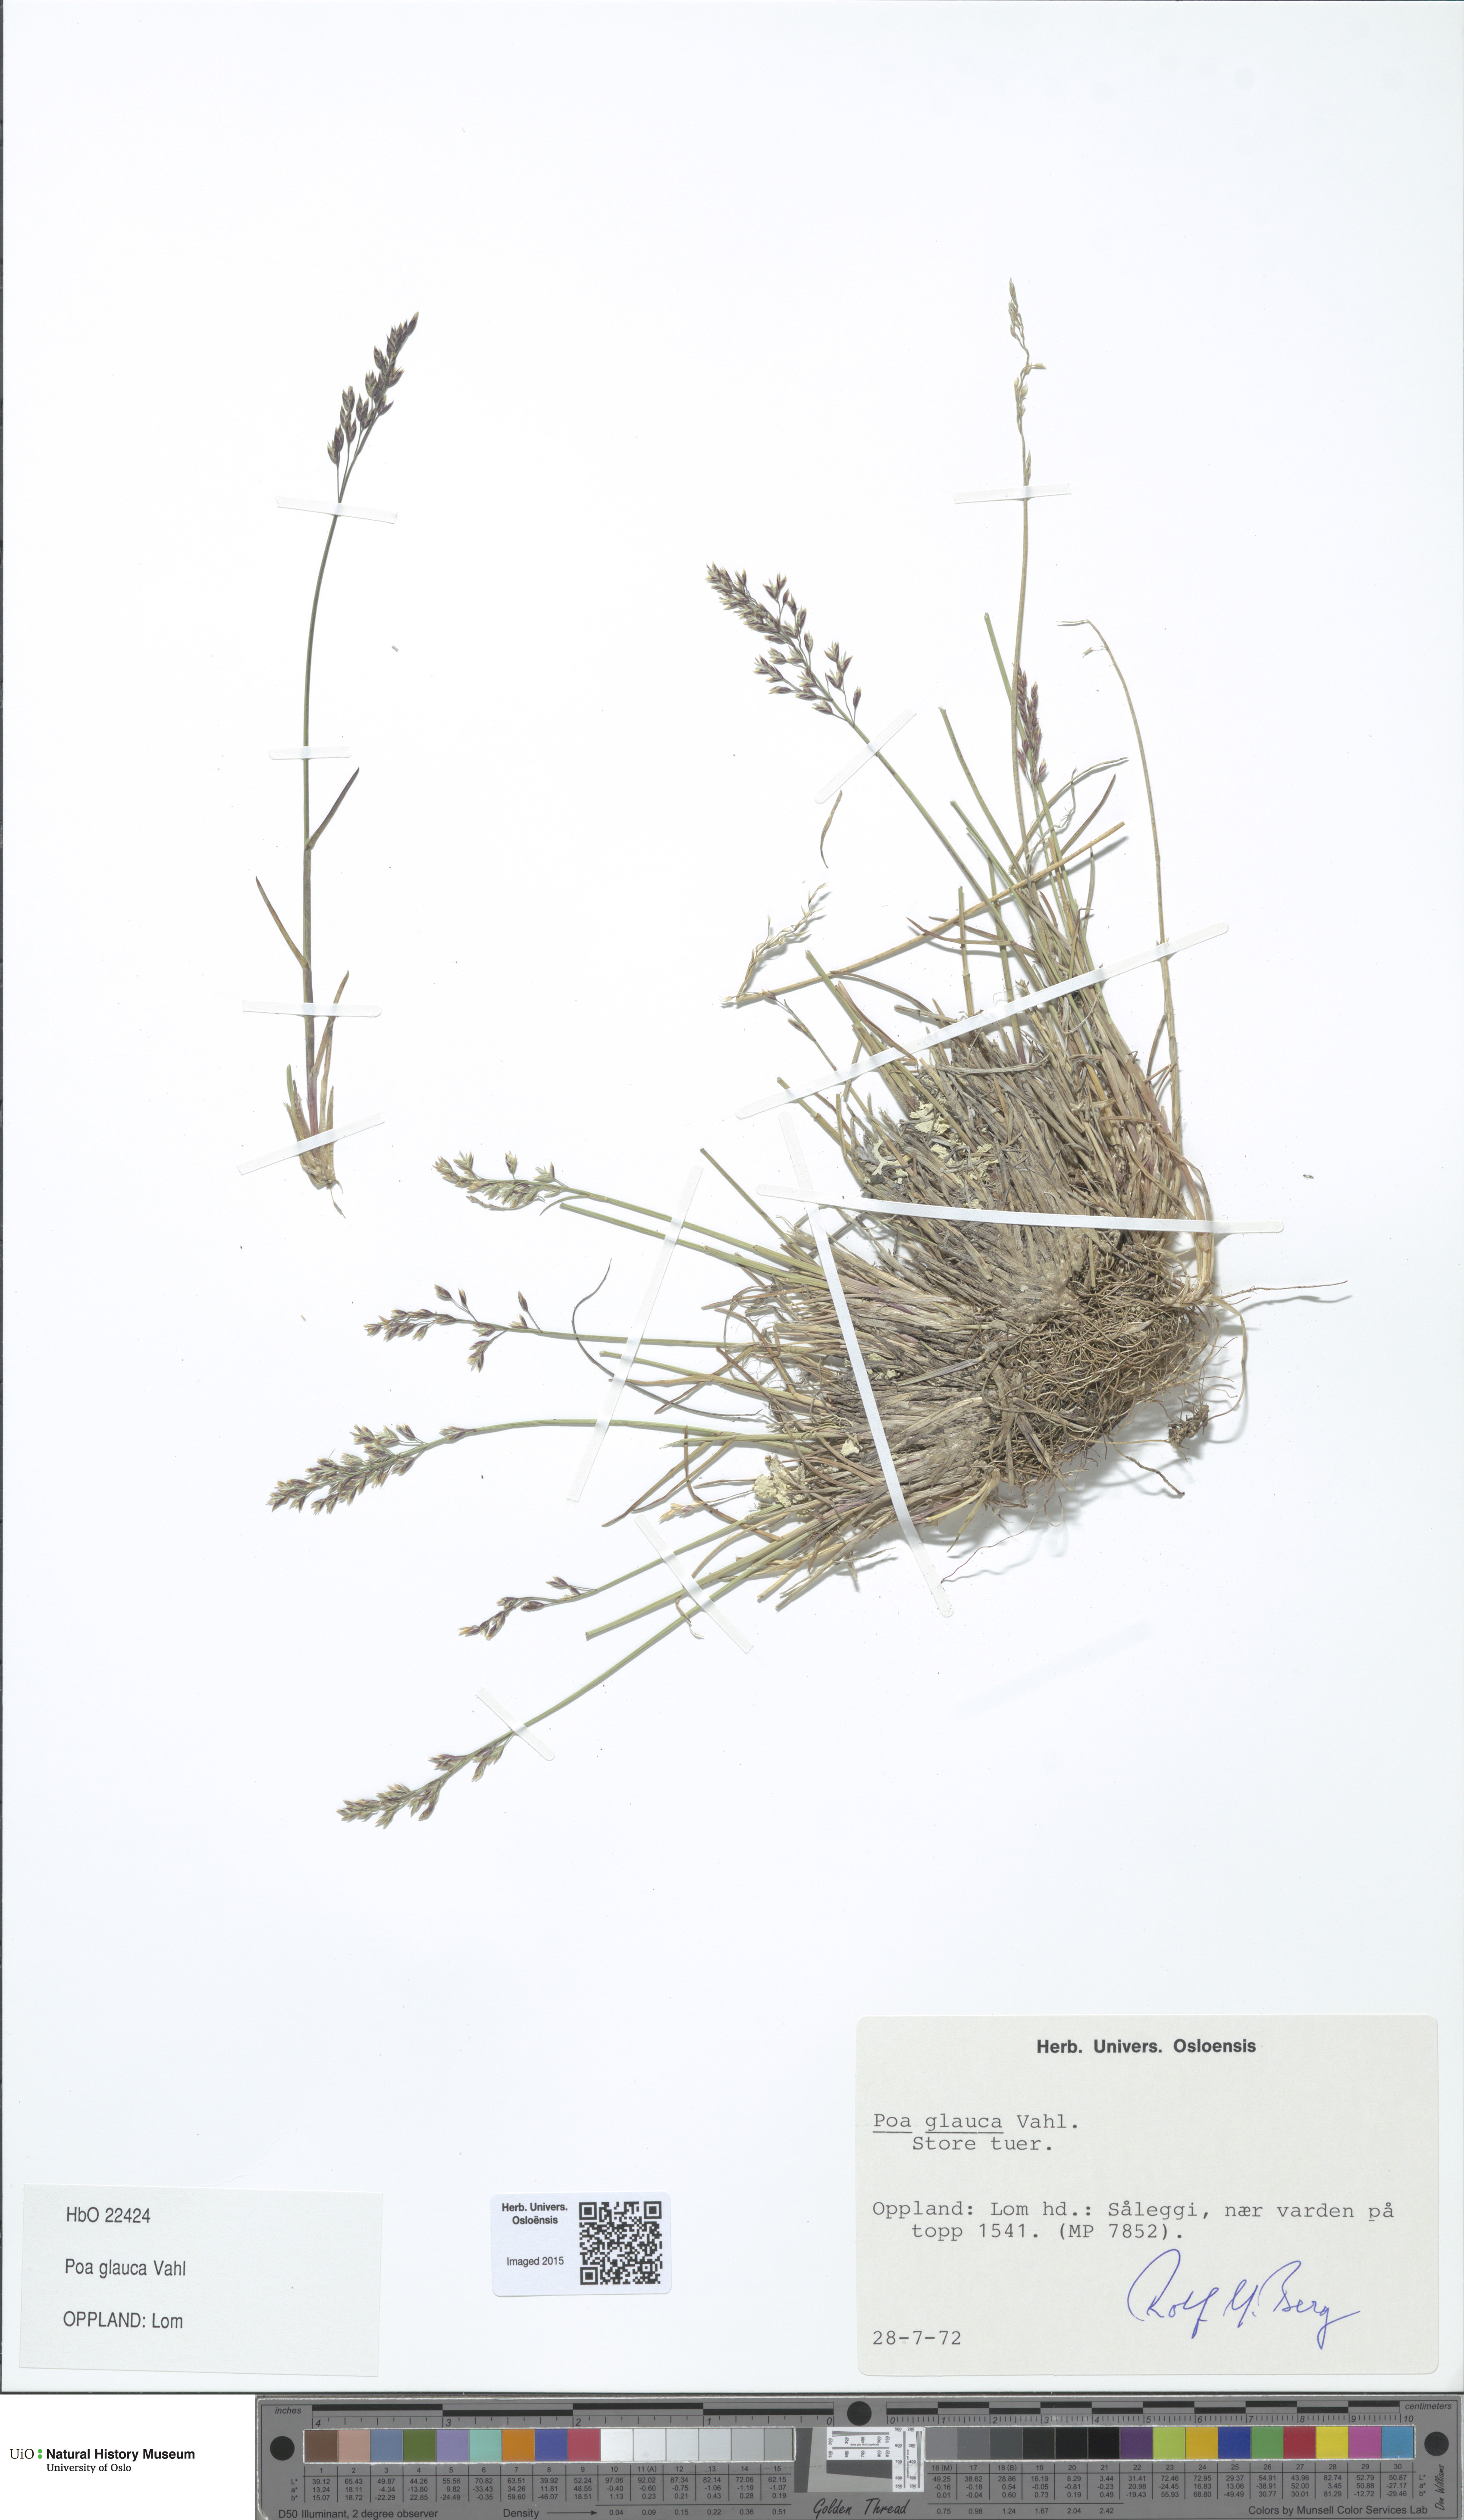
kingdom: Plantae
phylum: Tracheophyta
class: Liliopsida
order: Poales
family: Poaceae
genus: Poa
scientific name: Poa glauca
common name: Glaucous bluegrass
